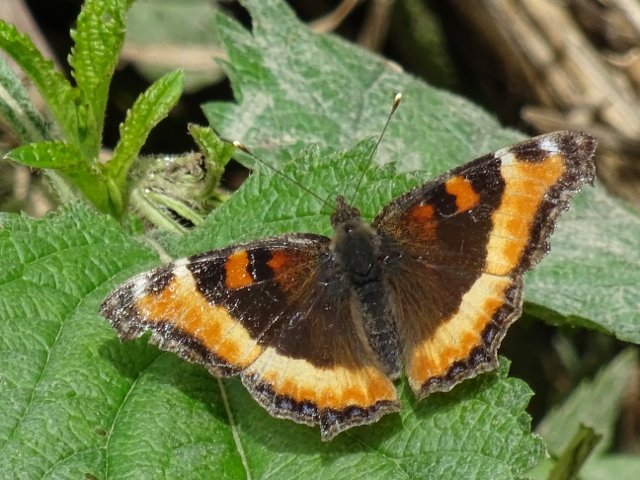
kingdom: Animalia
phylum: Arthropoda
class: Insecta
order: Lepidoptera
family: Nymphalidae
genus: Aglais
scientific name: Aglais milberti
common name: Milbert's Tortoiseshell
